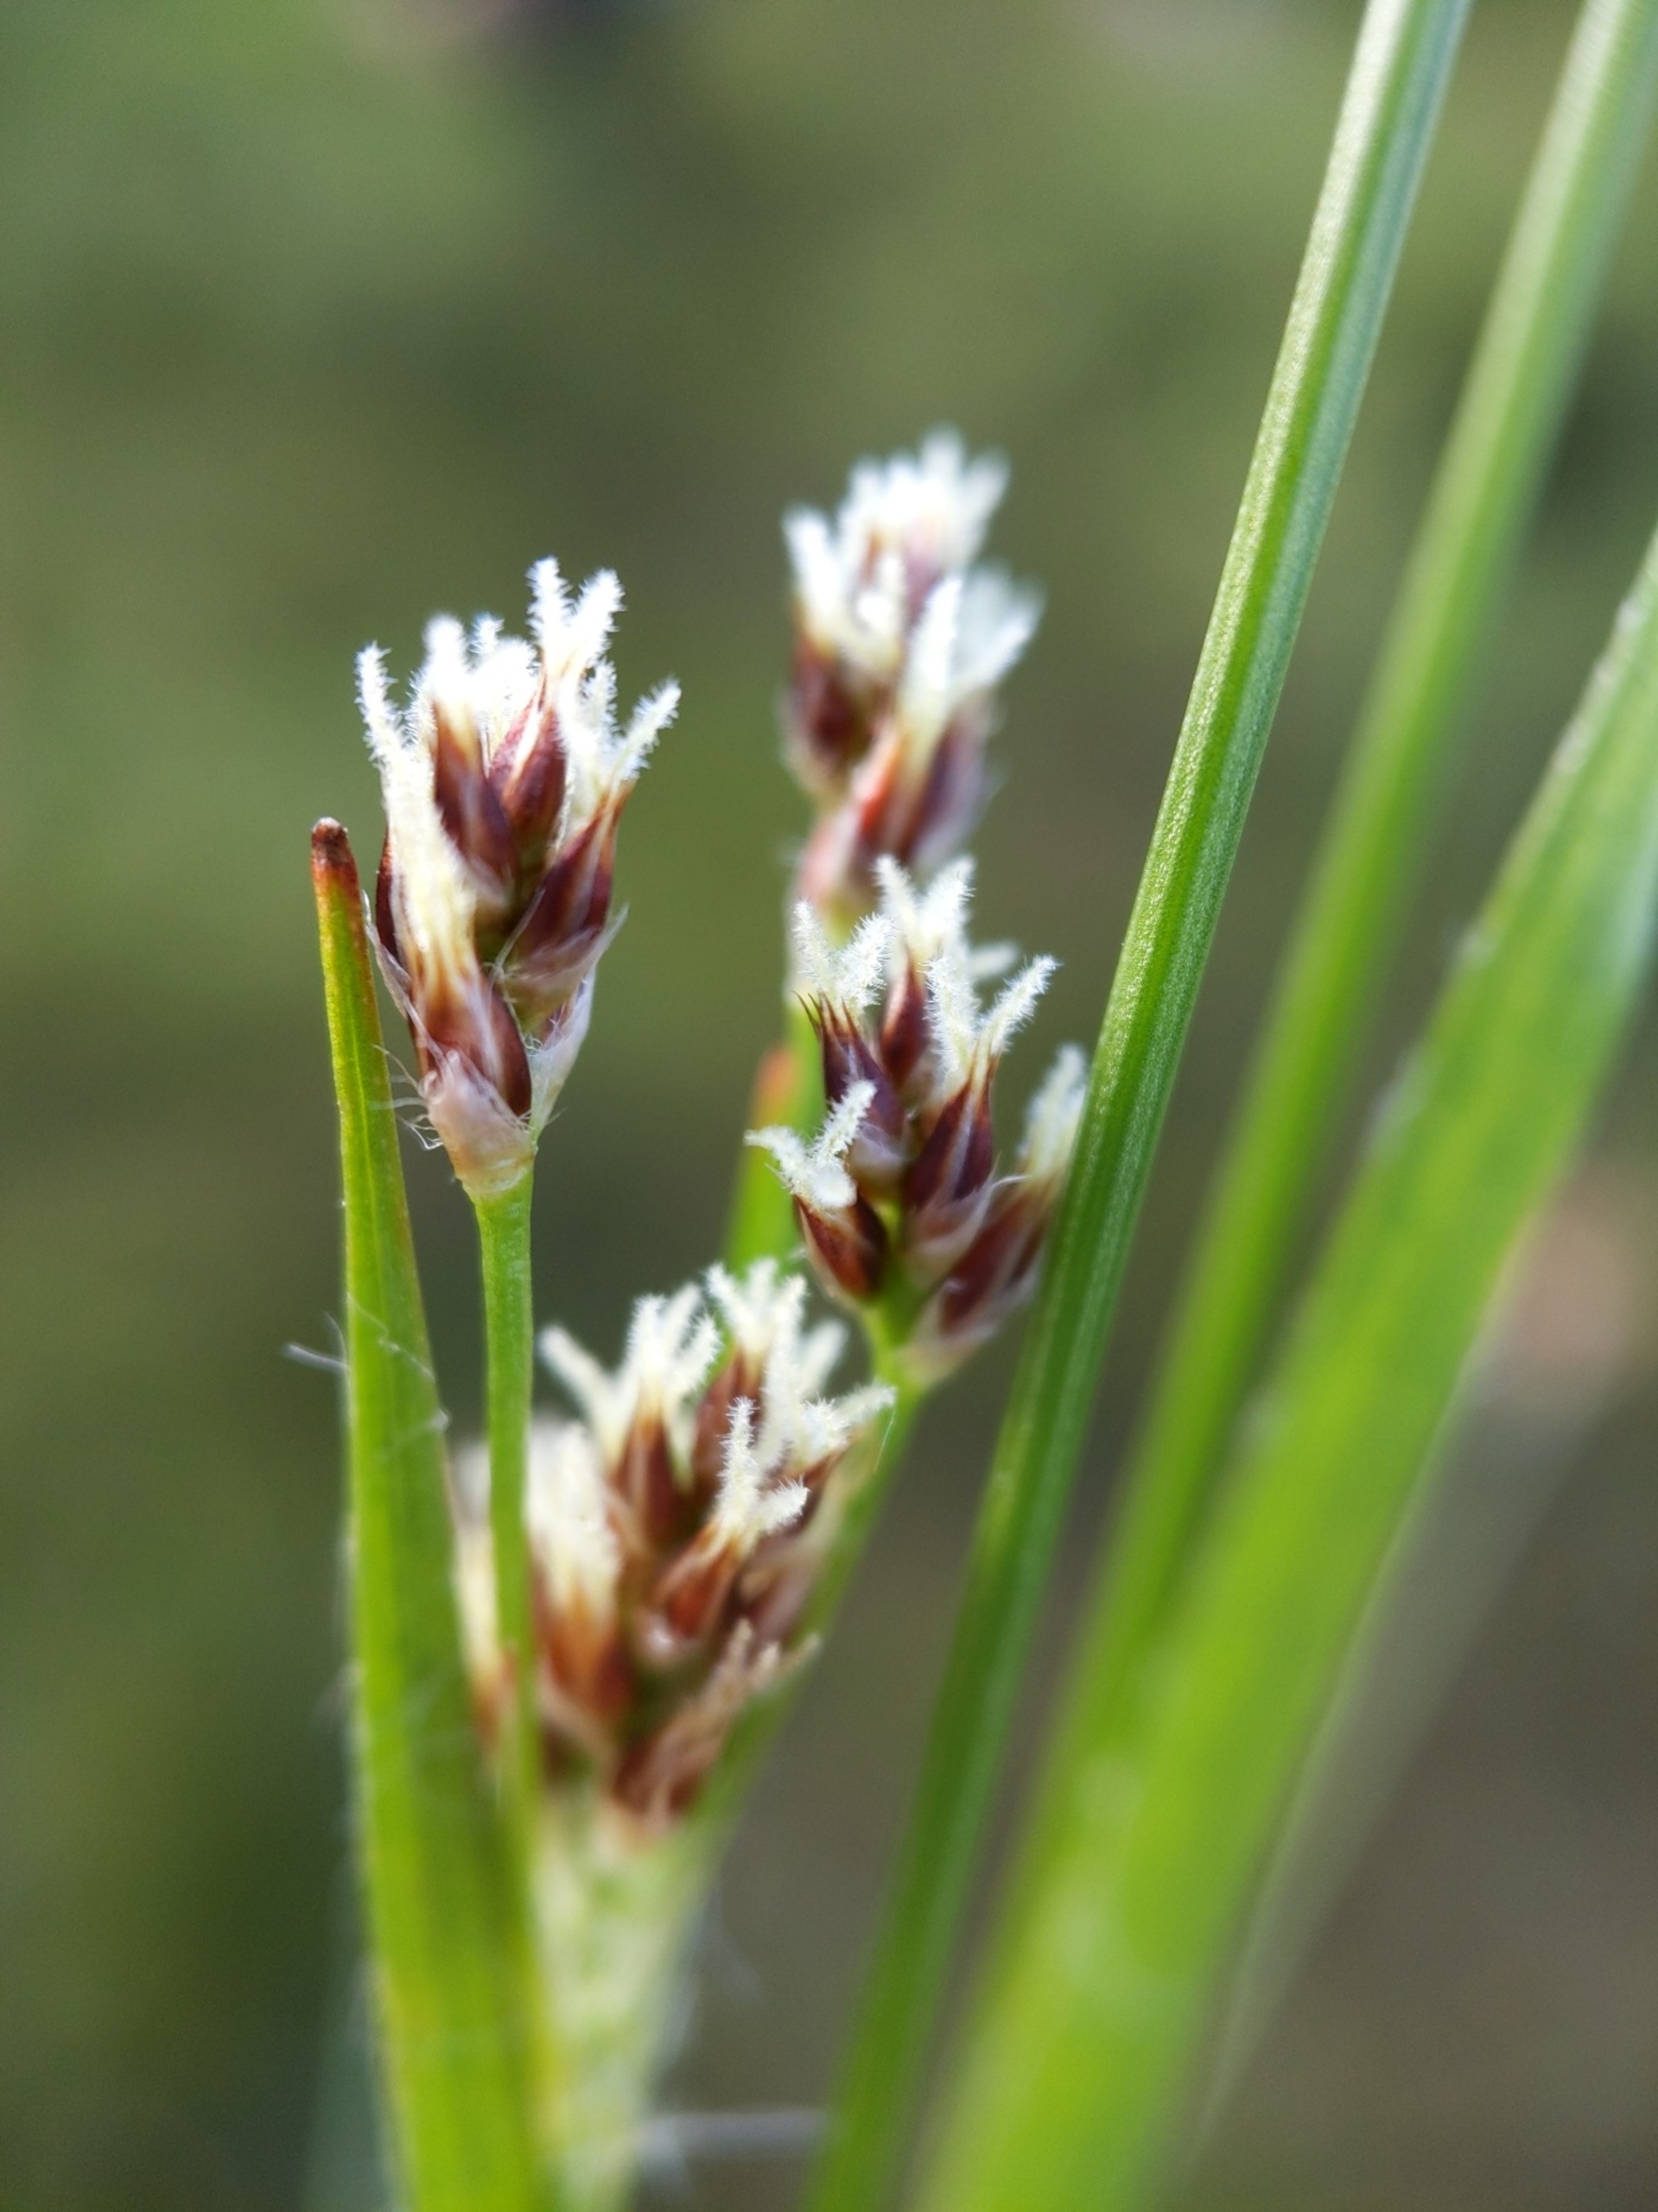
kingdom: Plantae
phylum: Tracheophyta
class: Liliopsida
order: Poales
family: Juncaceae
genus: Luzula
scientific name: Luzula multiflora
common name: Mangeblomstret frytle
